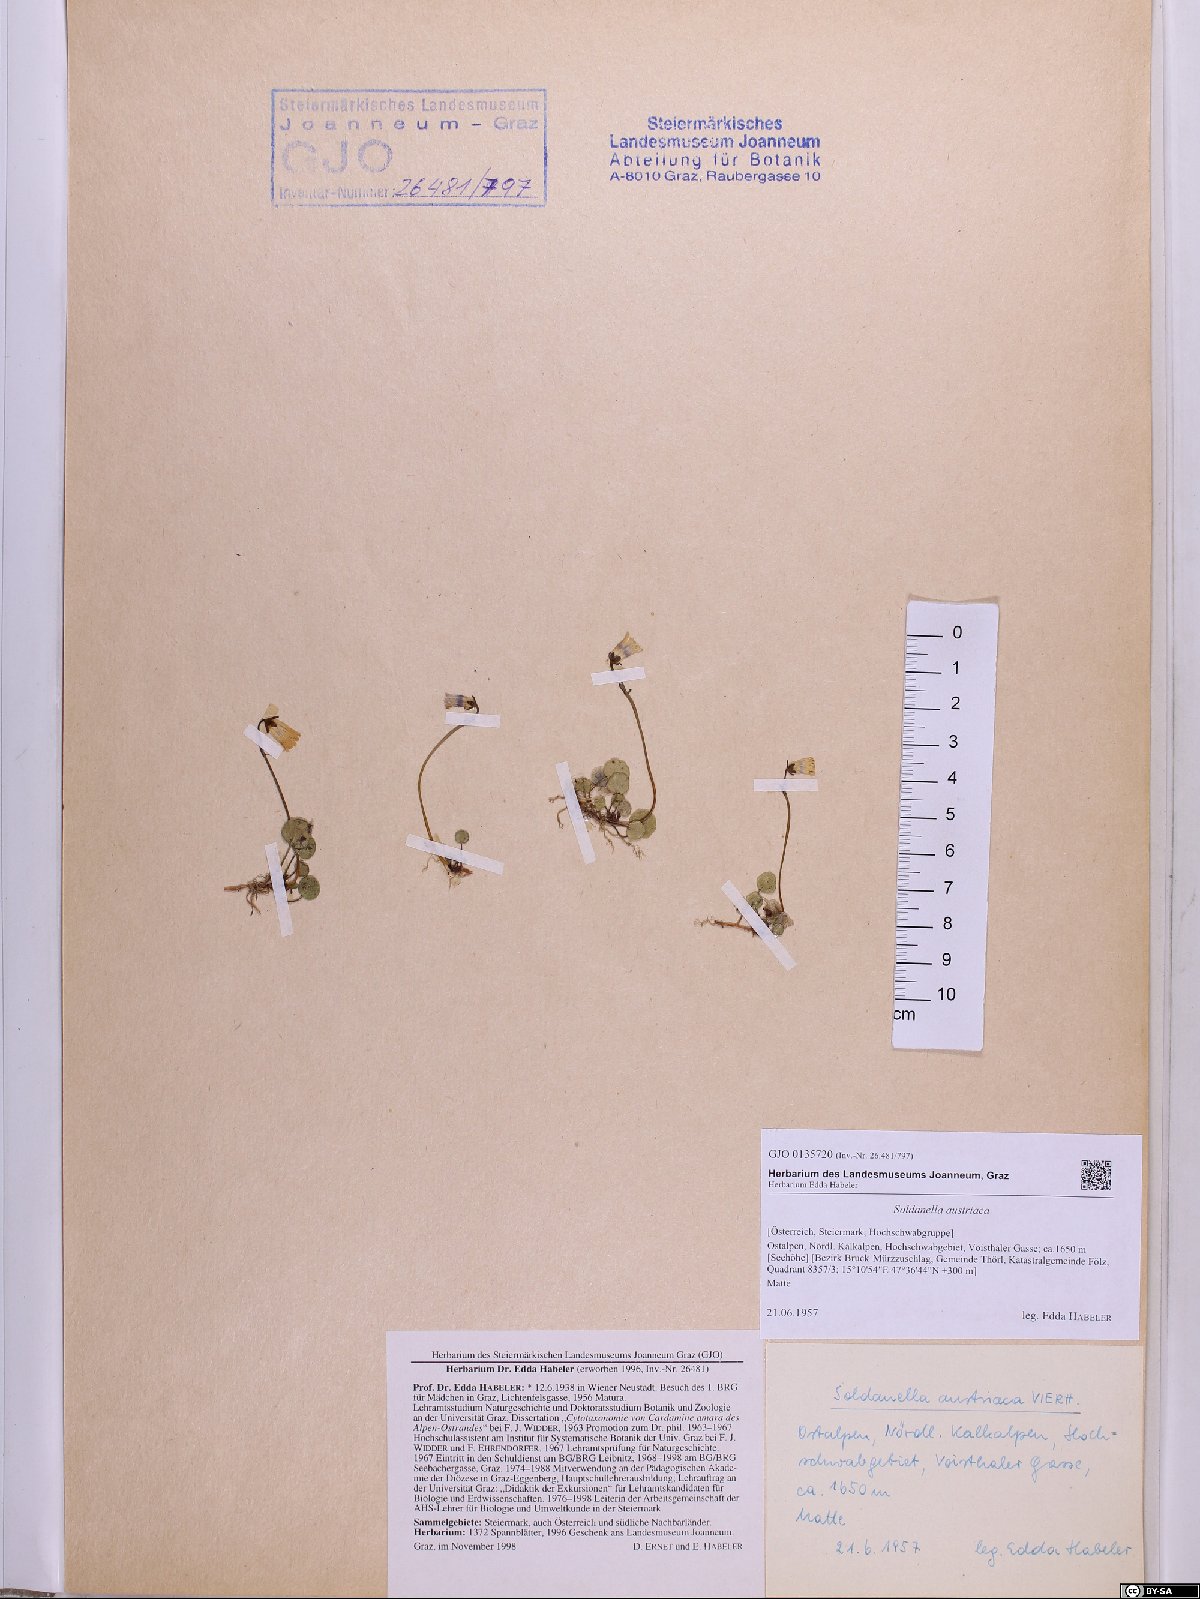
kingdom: Plantae
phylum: Tracheophyta
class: Magnoliopsida
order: Ericales
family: Primulaceae
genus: Soldanella
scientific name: Soldanella austriaca
